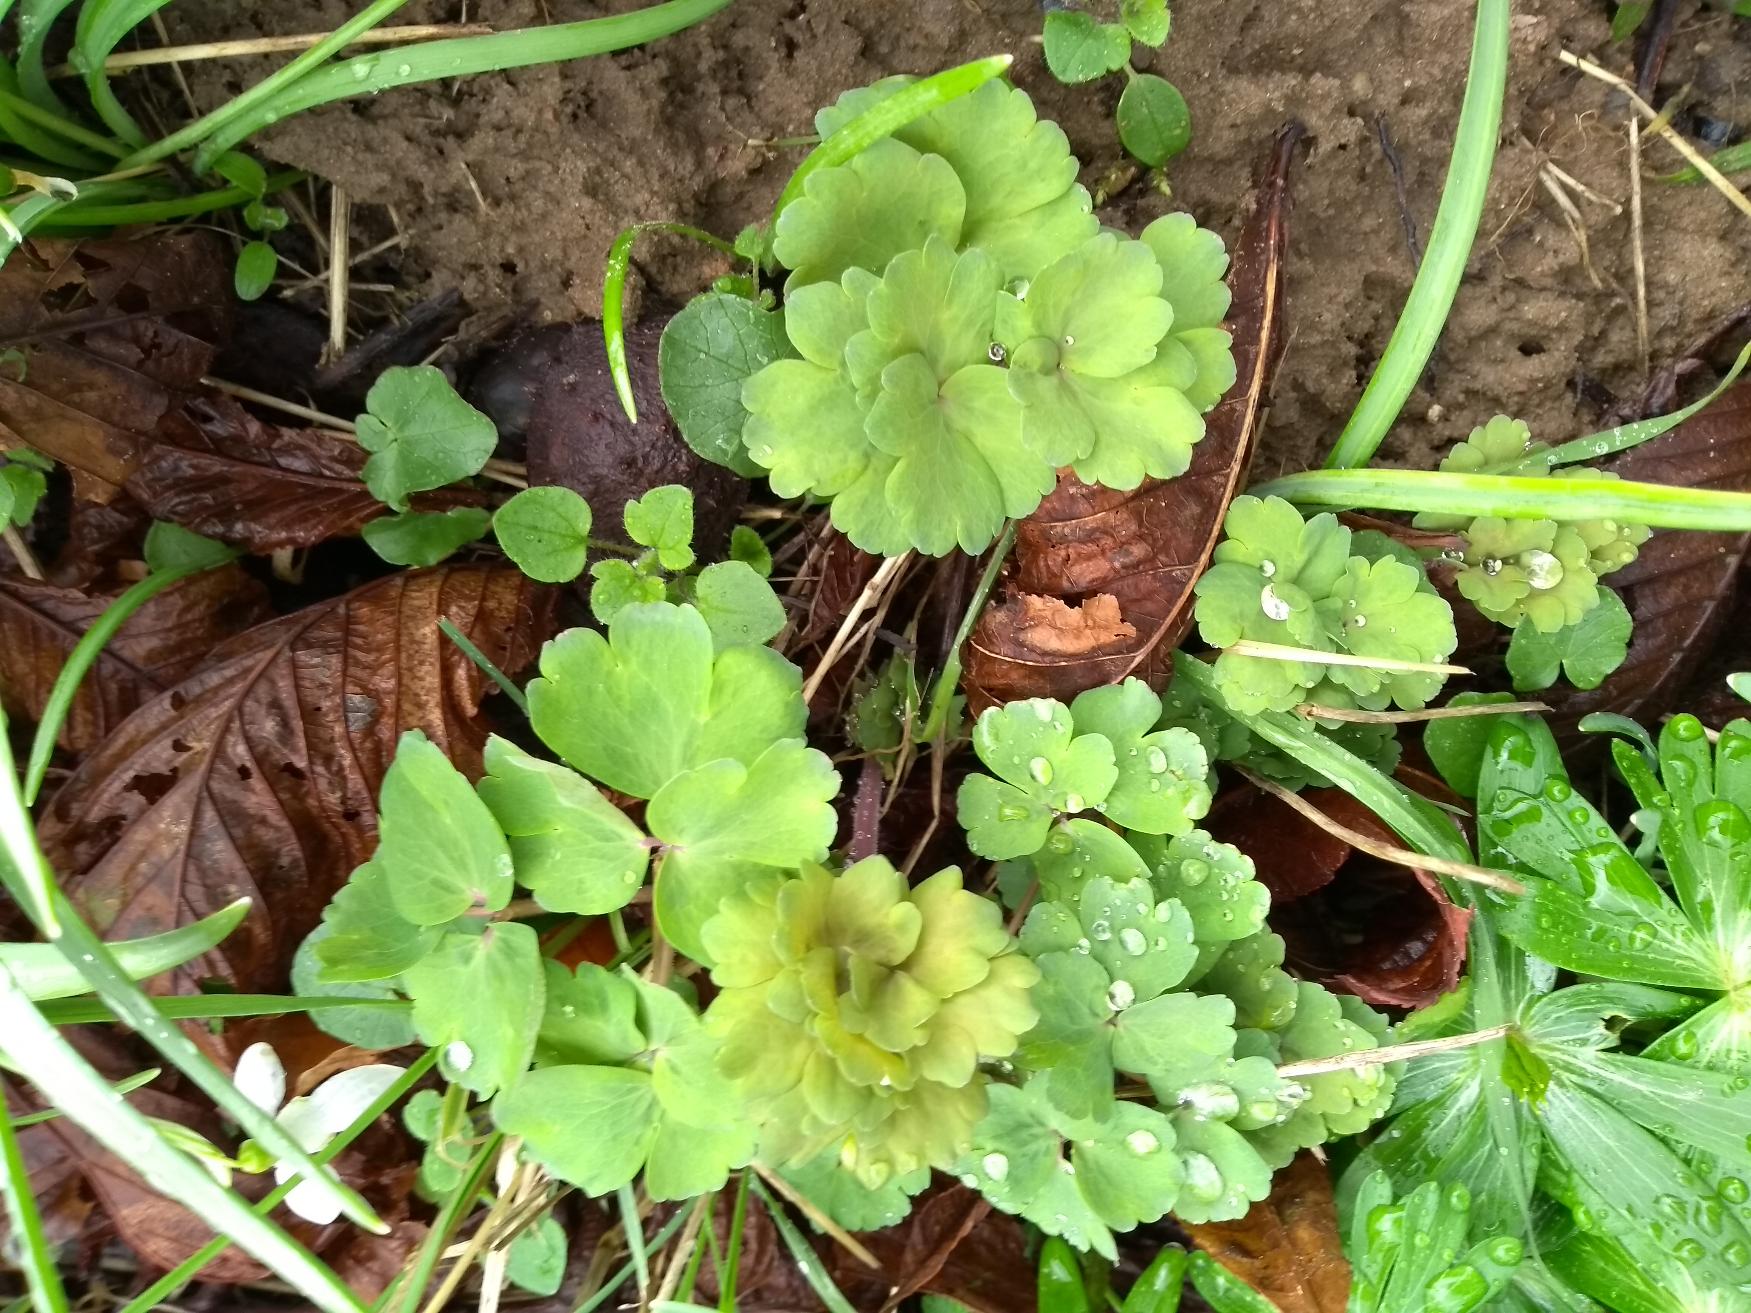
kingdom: Plantae
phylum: Tracheophyta
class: Magnoliopsida
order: Ranunculales
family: Ranunculaceae
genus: Aquilegia
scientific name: Aquilegia vulgaris
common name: Akeleje
